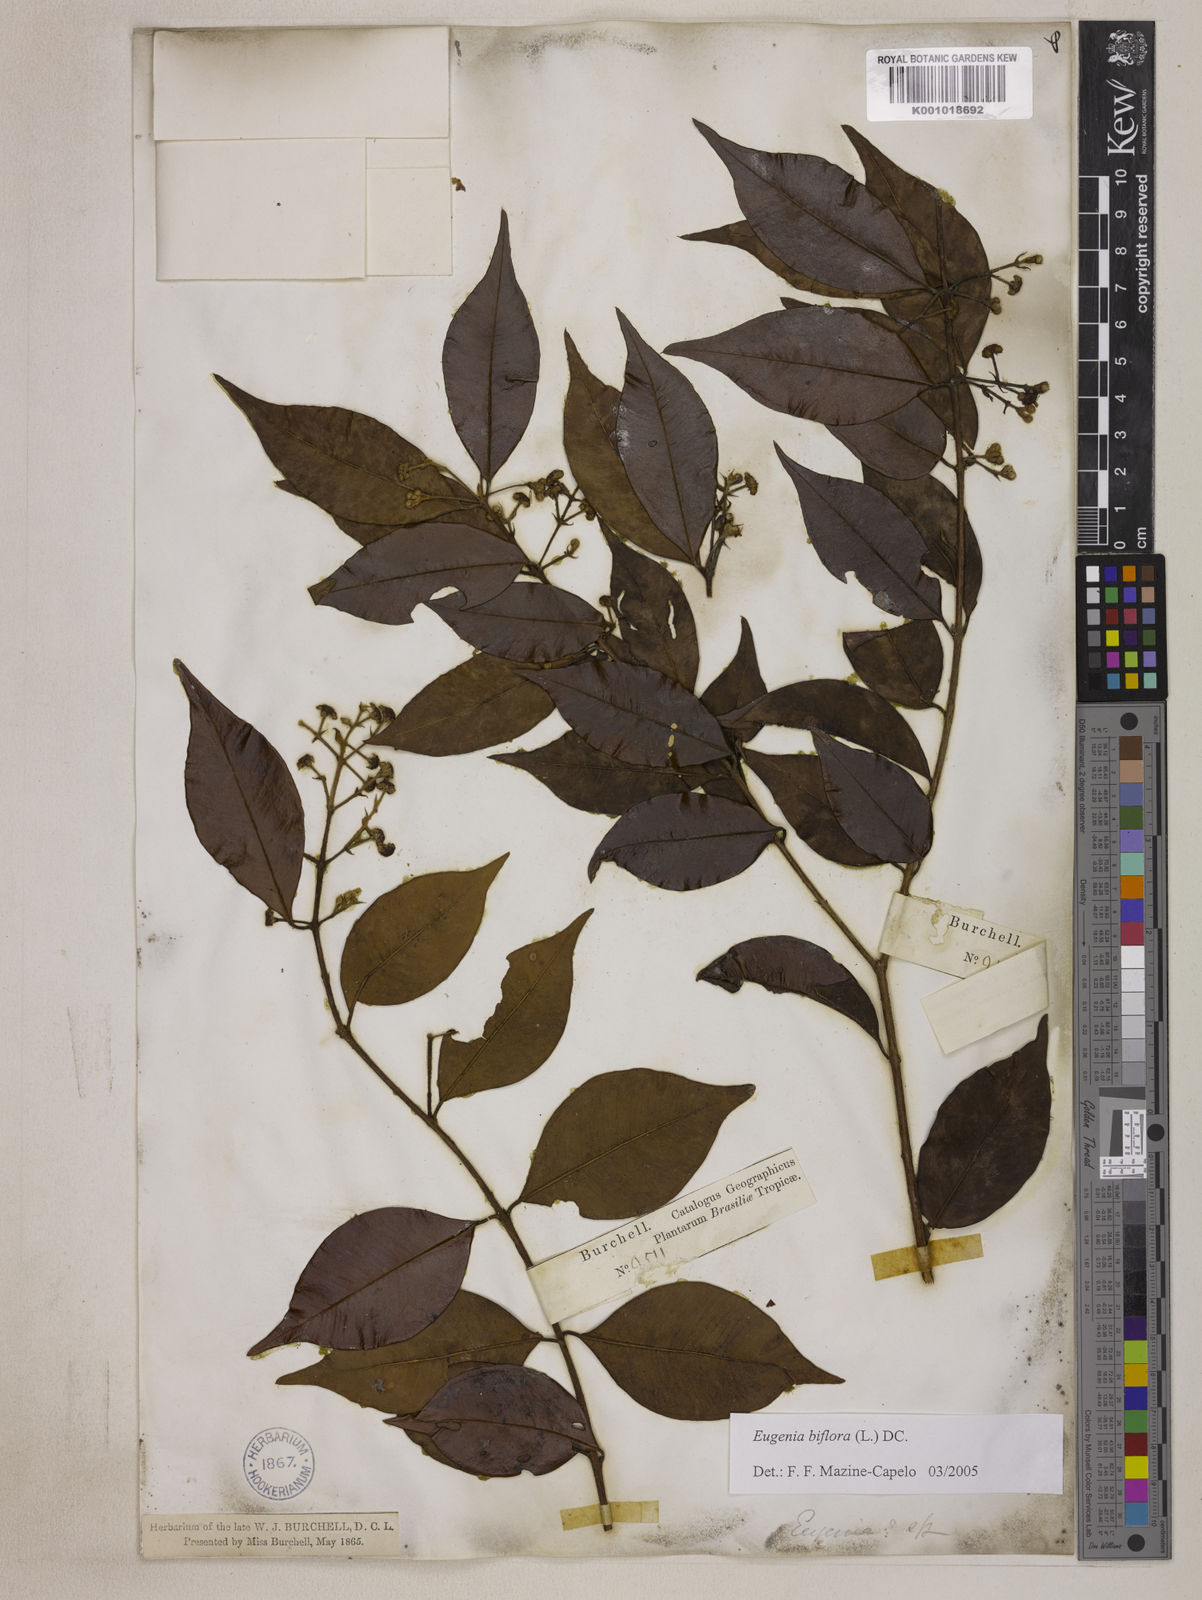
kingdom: Plantae
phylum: Tracheophyta
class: Magnoliopsida
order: Myrtales
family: Myrtaceae
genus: Eugenia
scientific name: Eugenia biflora
